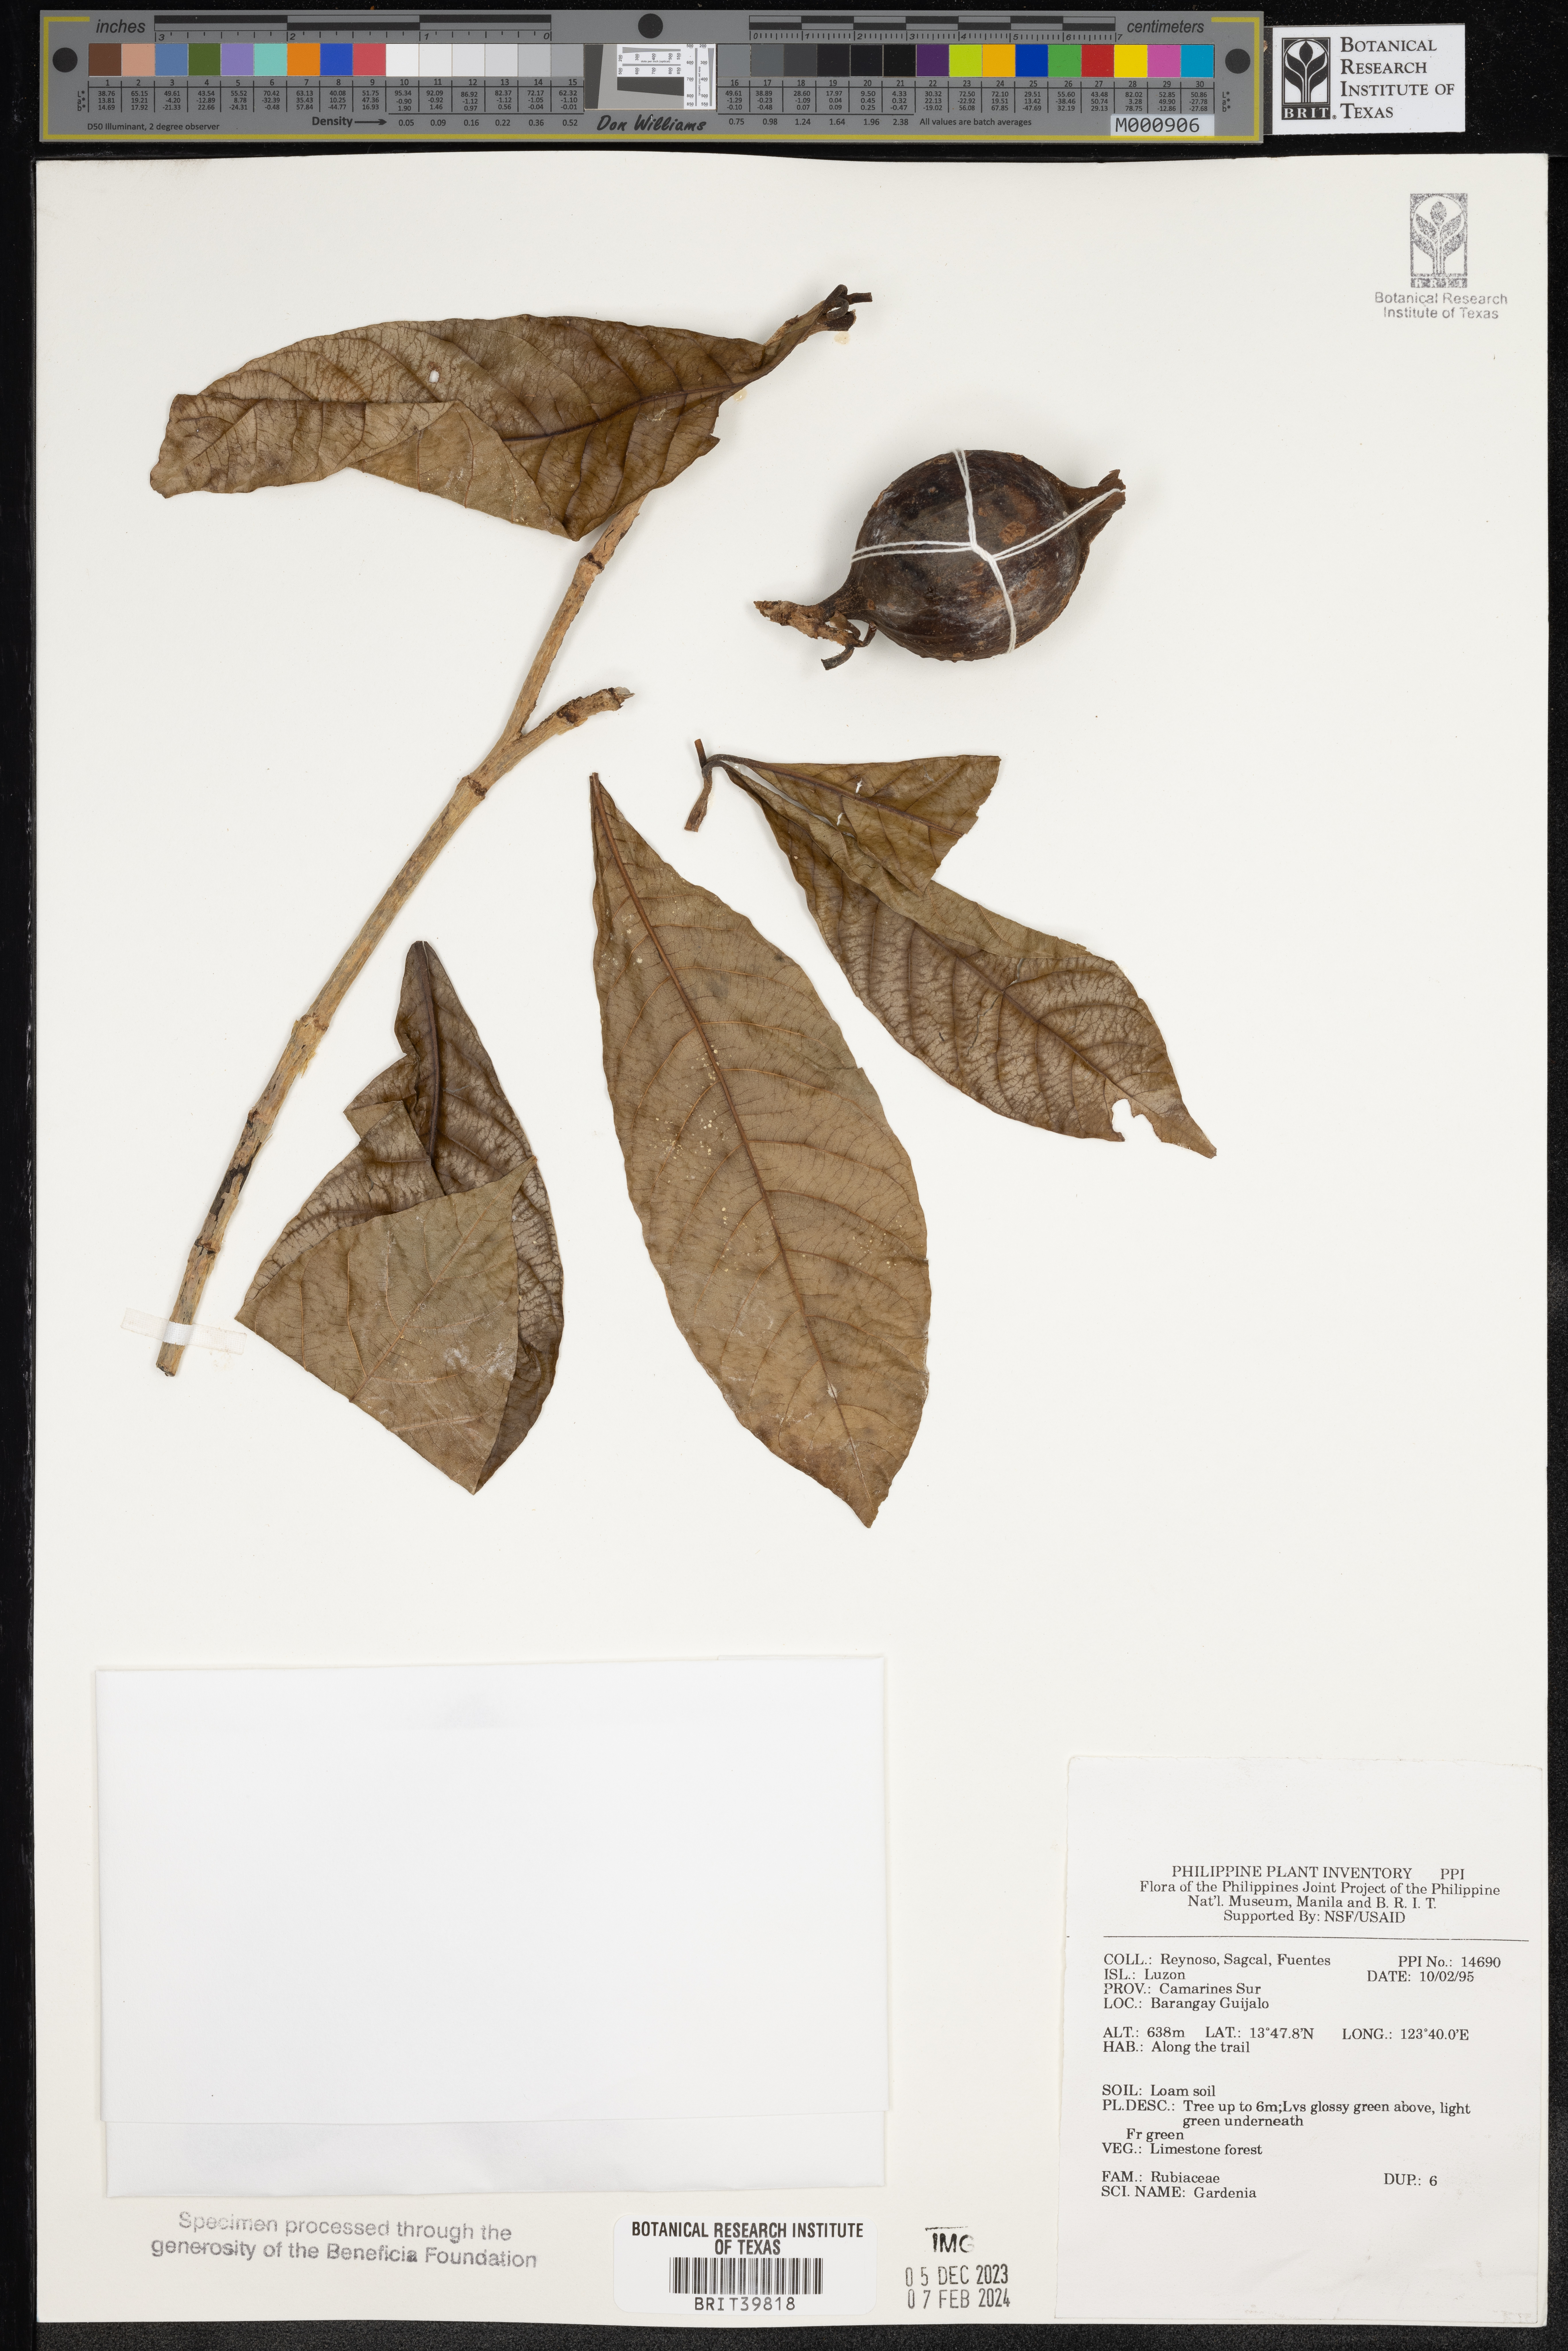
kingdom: Plantae
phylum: Tracheophyta
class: Magnoliopsida
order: Gentianales
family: Rubiaceae
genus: Gardenia
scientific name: Gardenia
